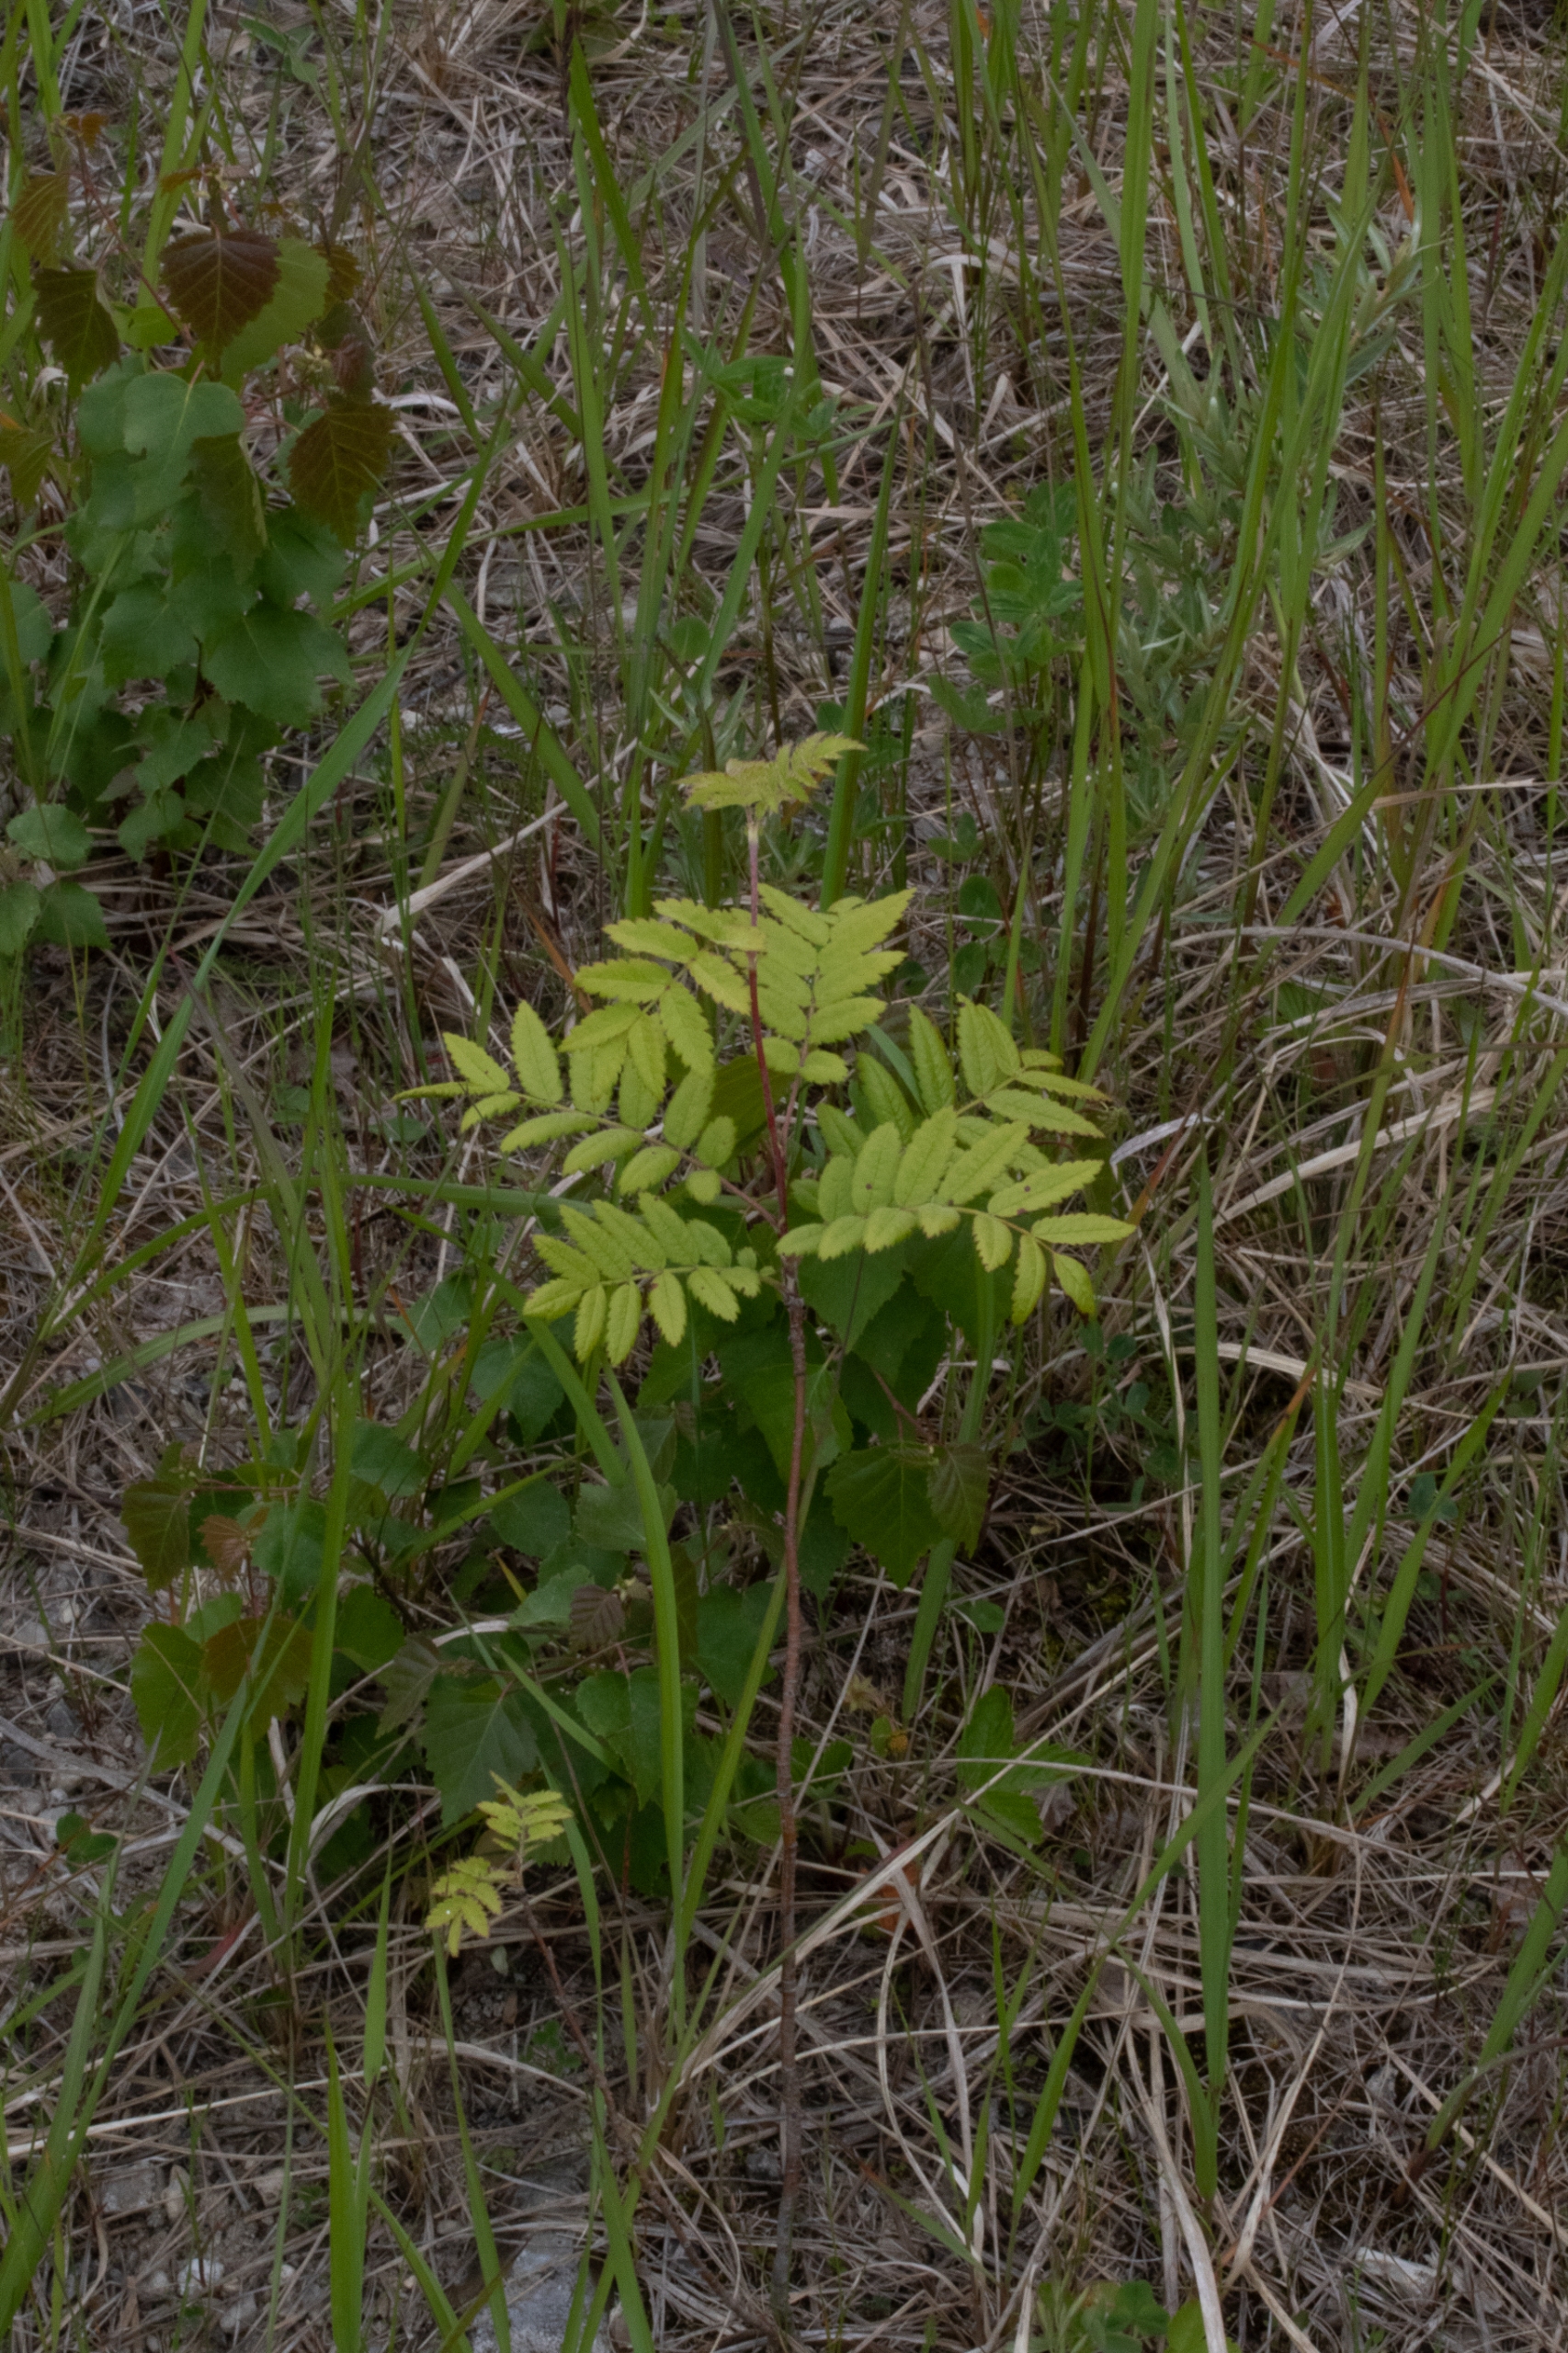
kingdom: Plantae
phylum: Tracheophyta
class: Magnoliopsida
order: Rosales
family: Rosaceae
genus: Sorbus
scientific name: Sorbus aucuparia
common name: Almindelig røn
